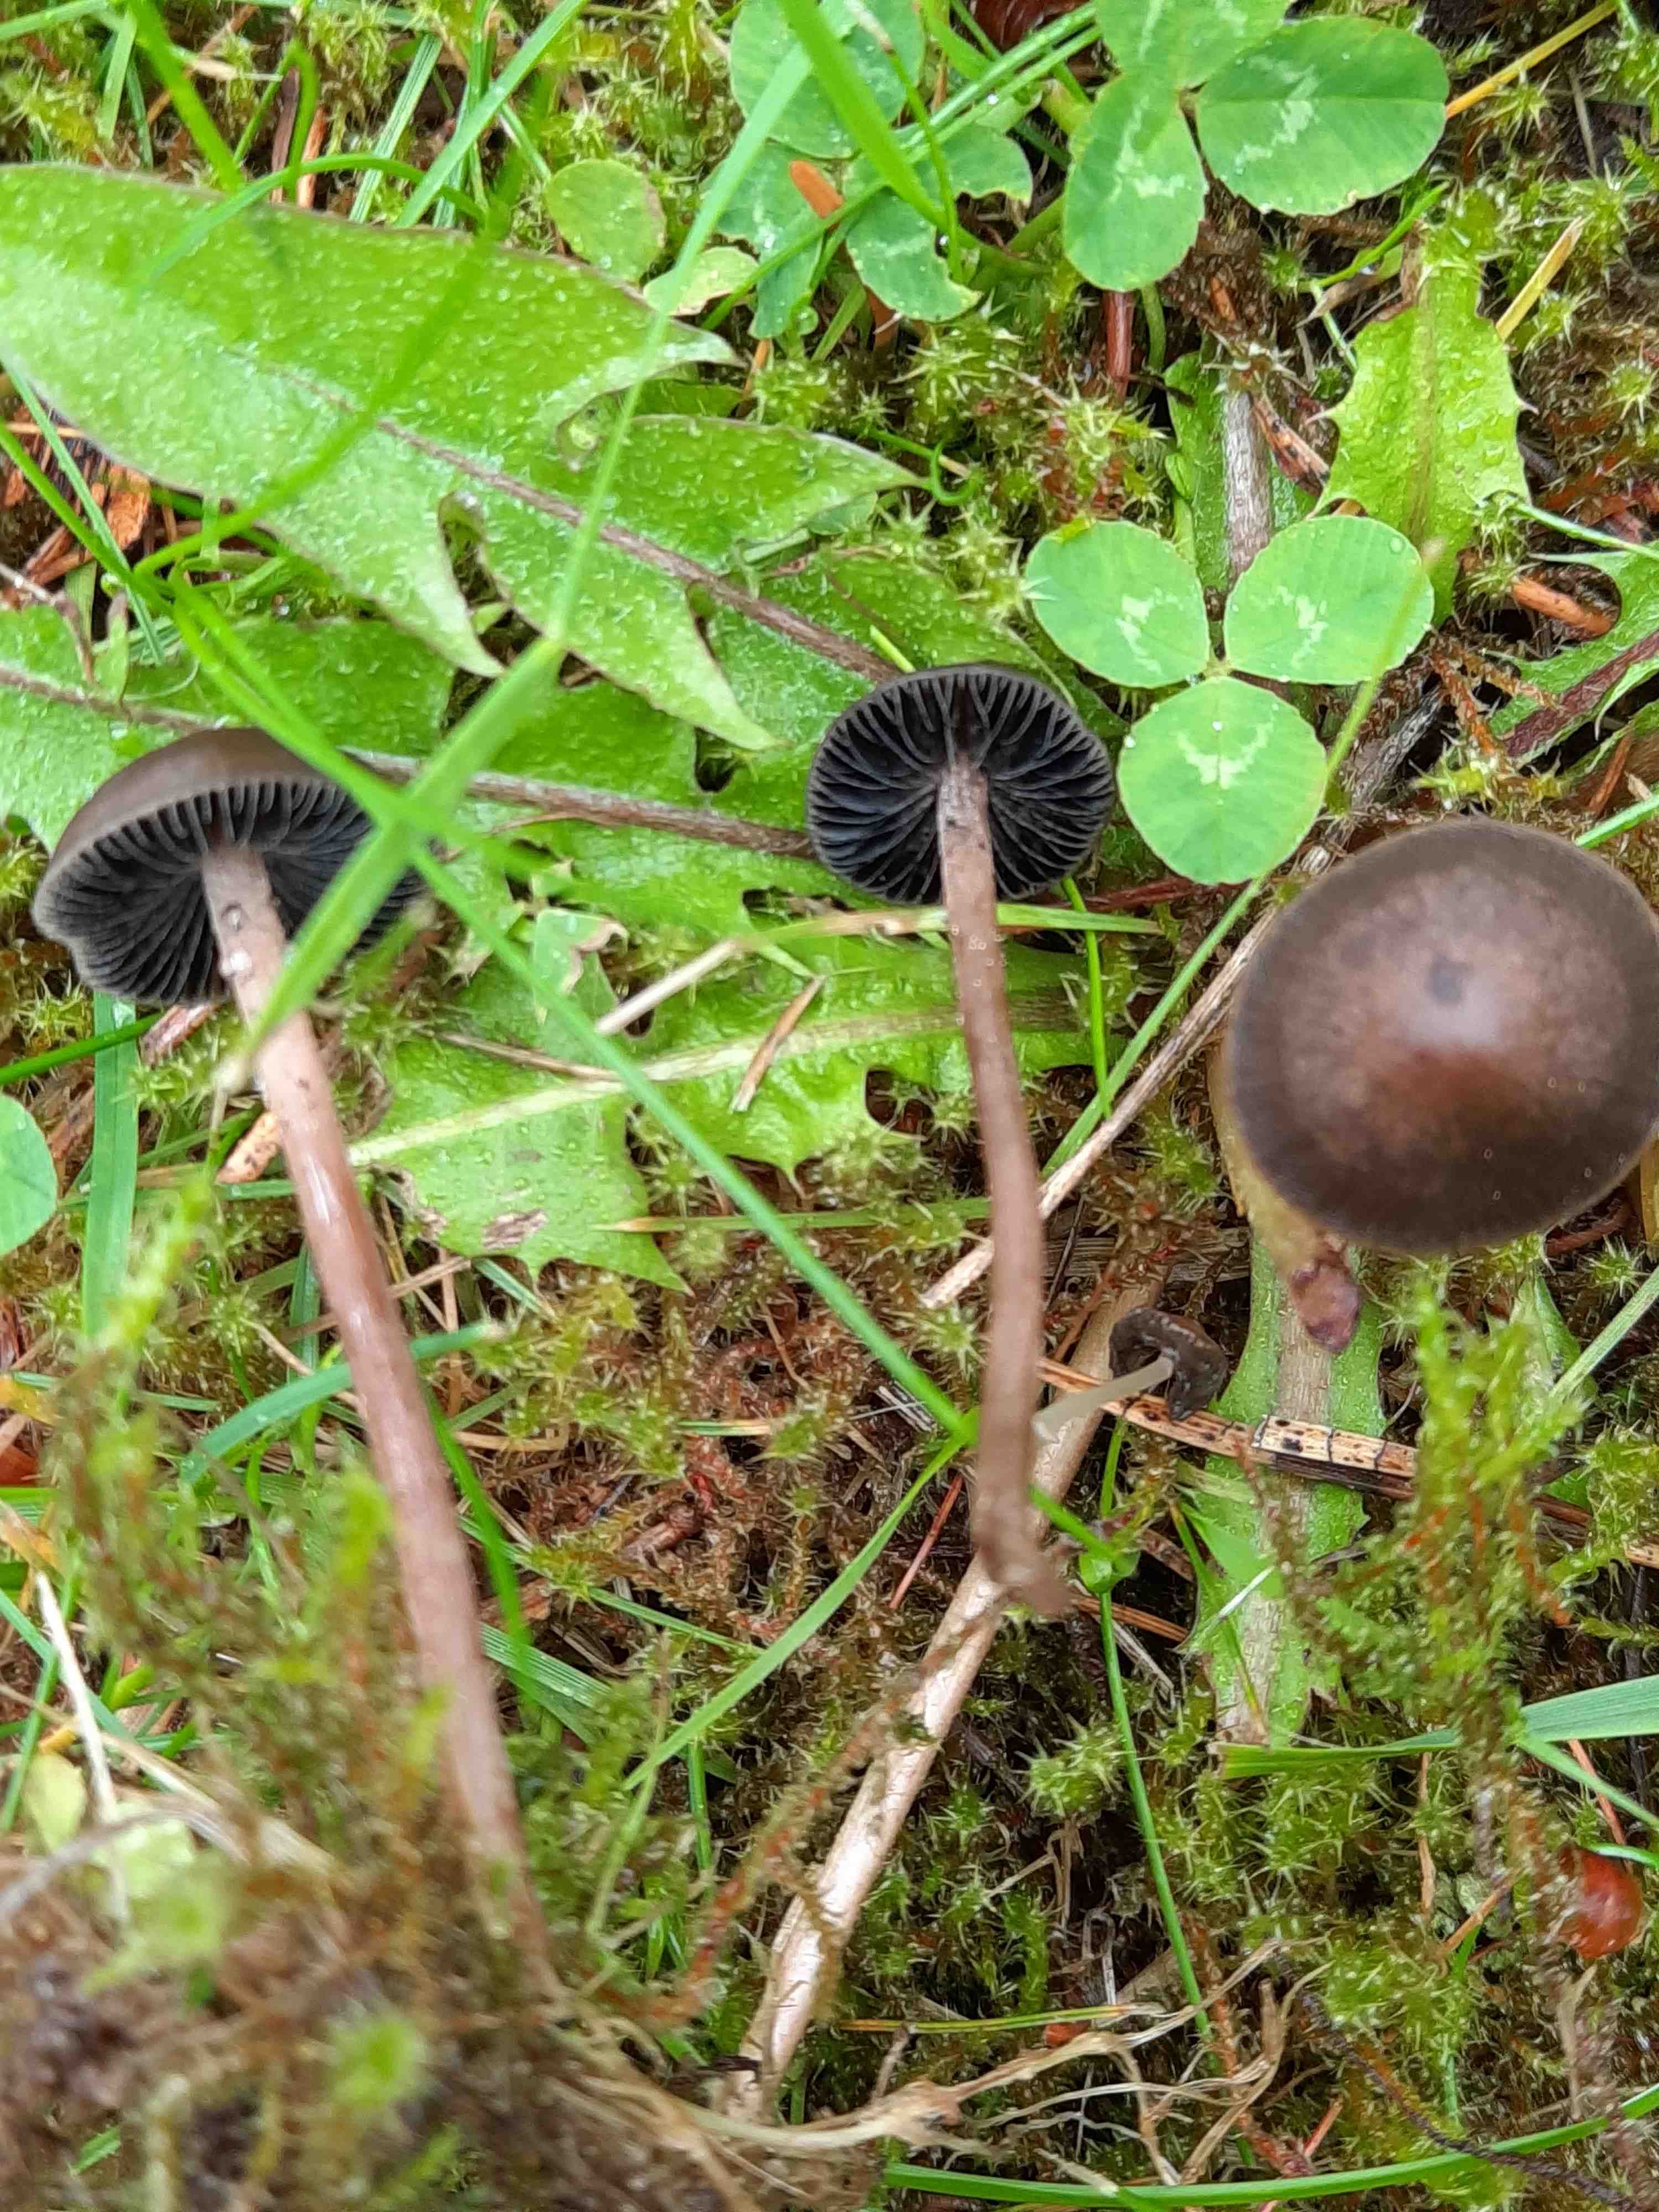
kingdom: Fungi
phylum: Basidiomycota
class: Agaricomycetes
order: Agaricales
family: Bolbitiaceae
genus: Panaeolus
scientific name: Panaeolus fimicola
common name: tidlig glanshat
